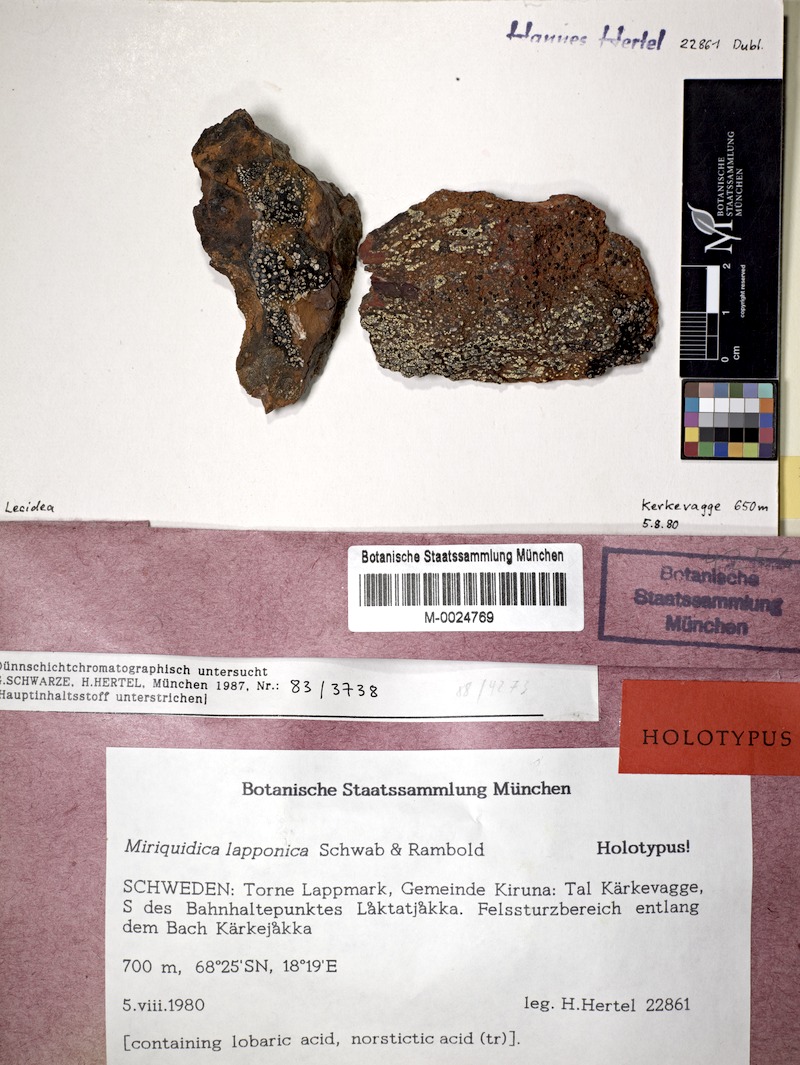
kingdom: Fungi
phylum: Ascomycota
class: Lecanoromycetes
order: Lecanorales
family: Lecanoraceae
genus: Miriquidica
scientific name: Miriquidica lapponica
